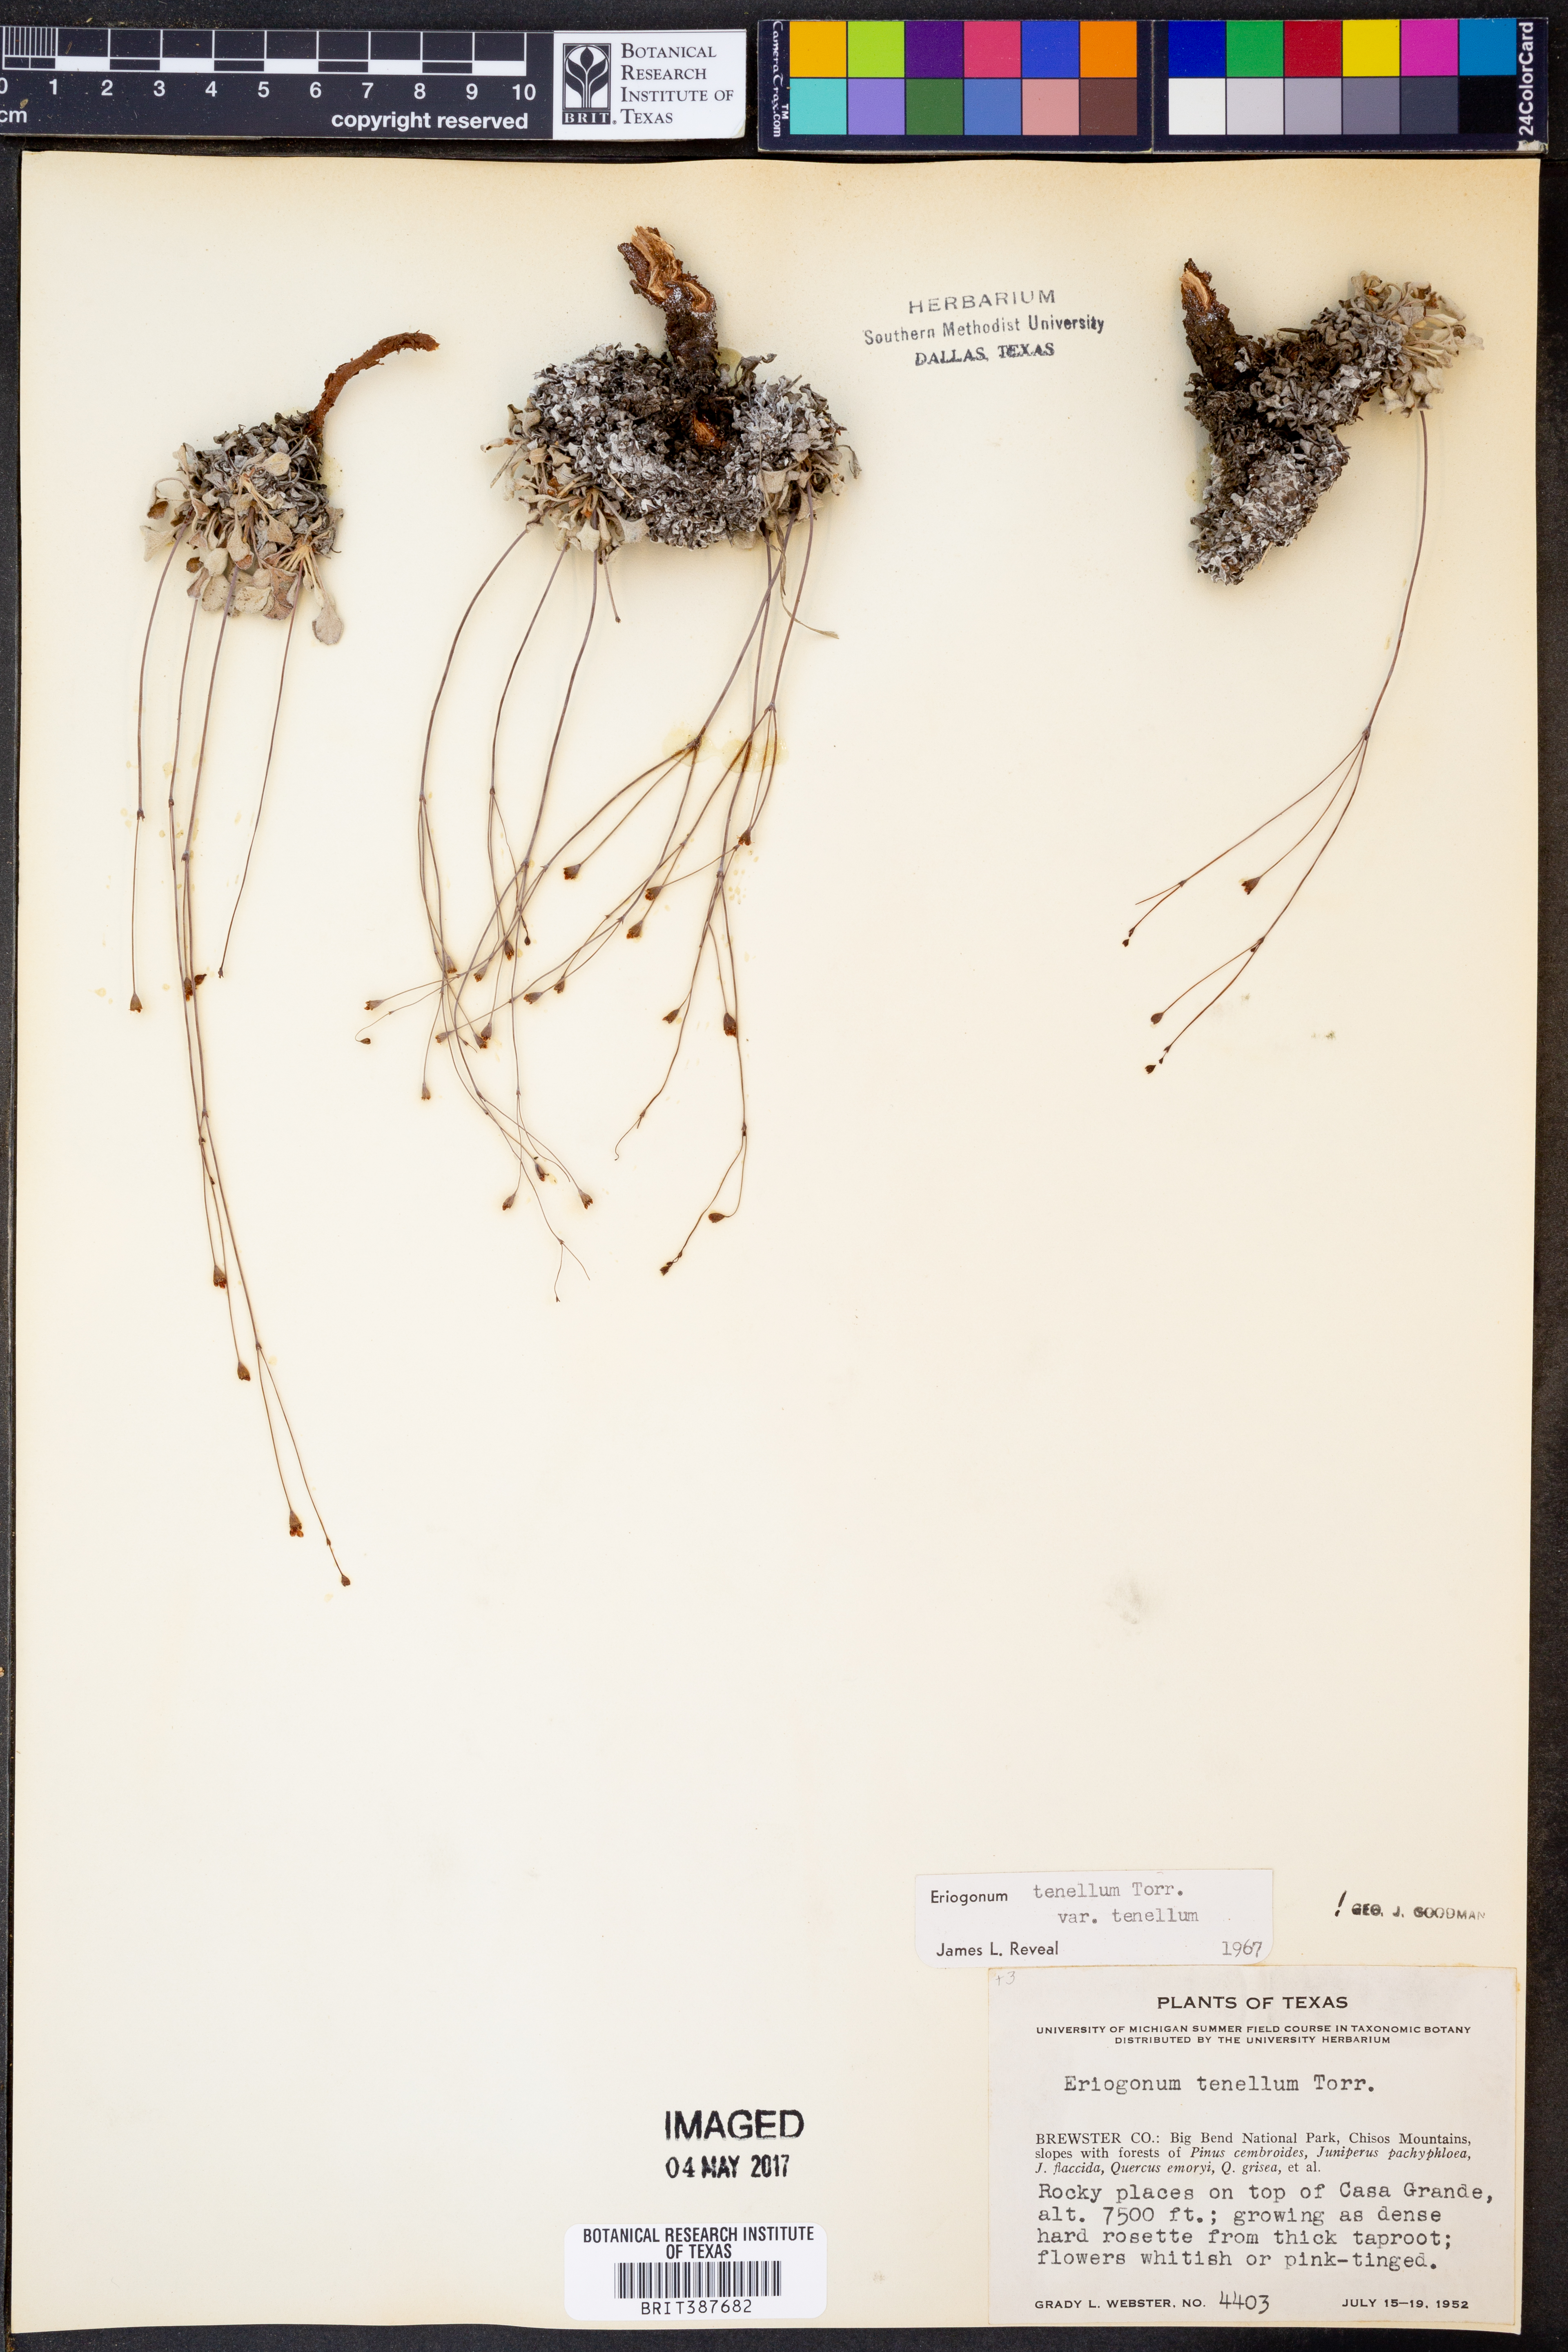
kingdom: Plantae
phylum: Tracheophyta
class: Magnoliopsida
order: Caryophyllales
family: Polygonaceae
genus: Eriogonum
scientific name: Eriogonum tenellum
